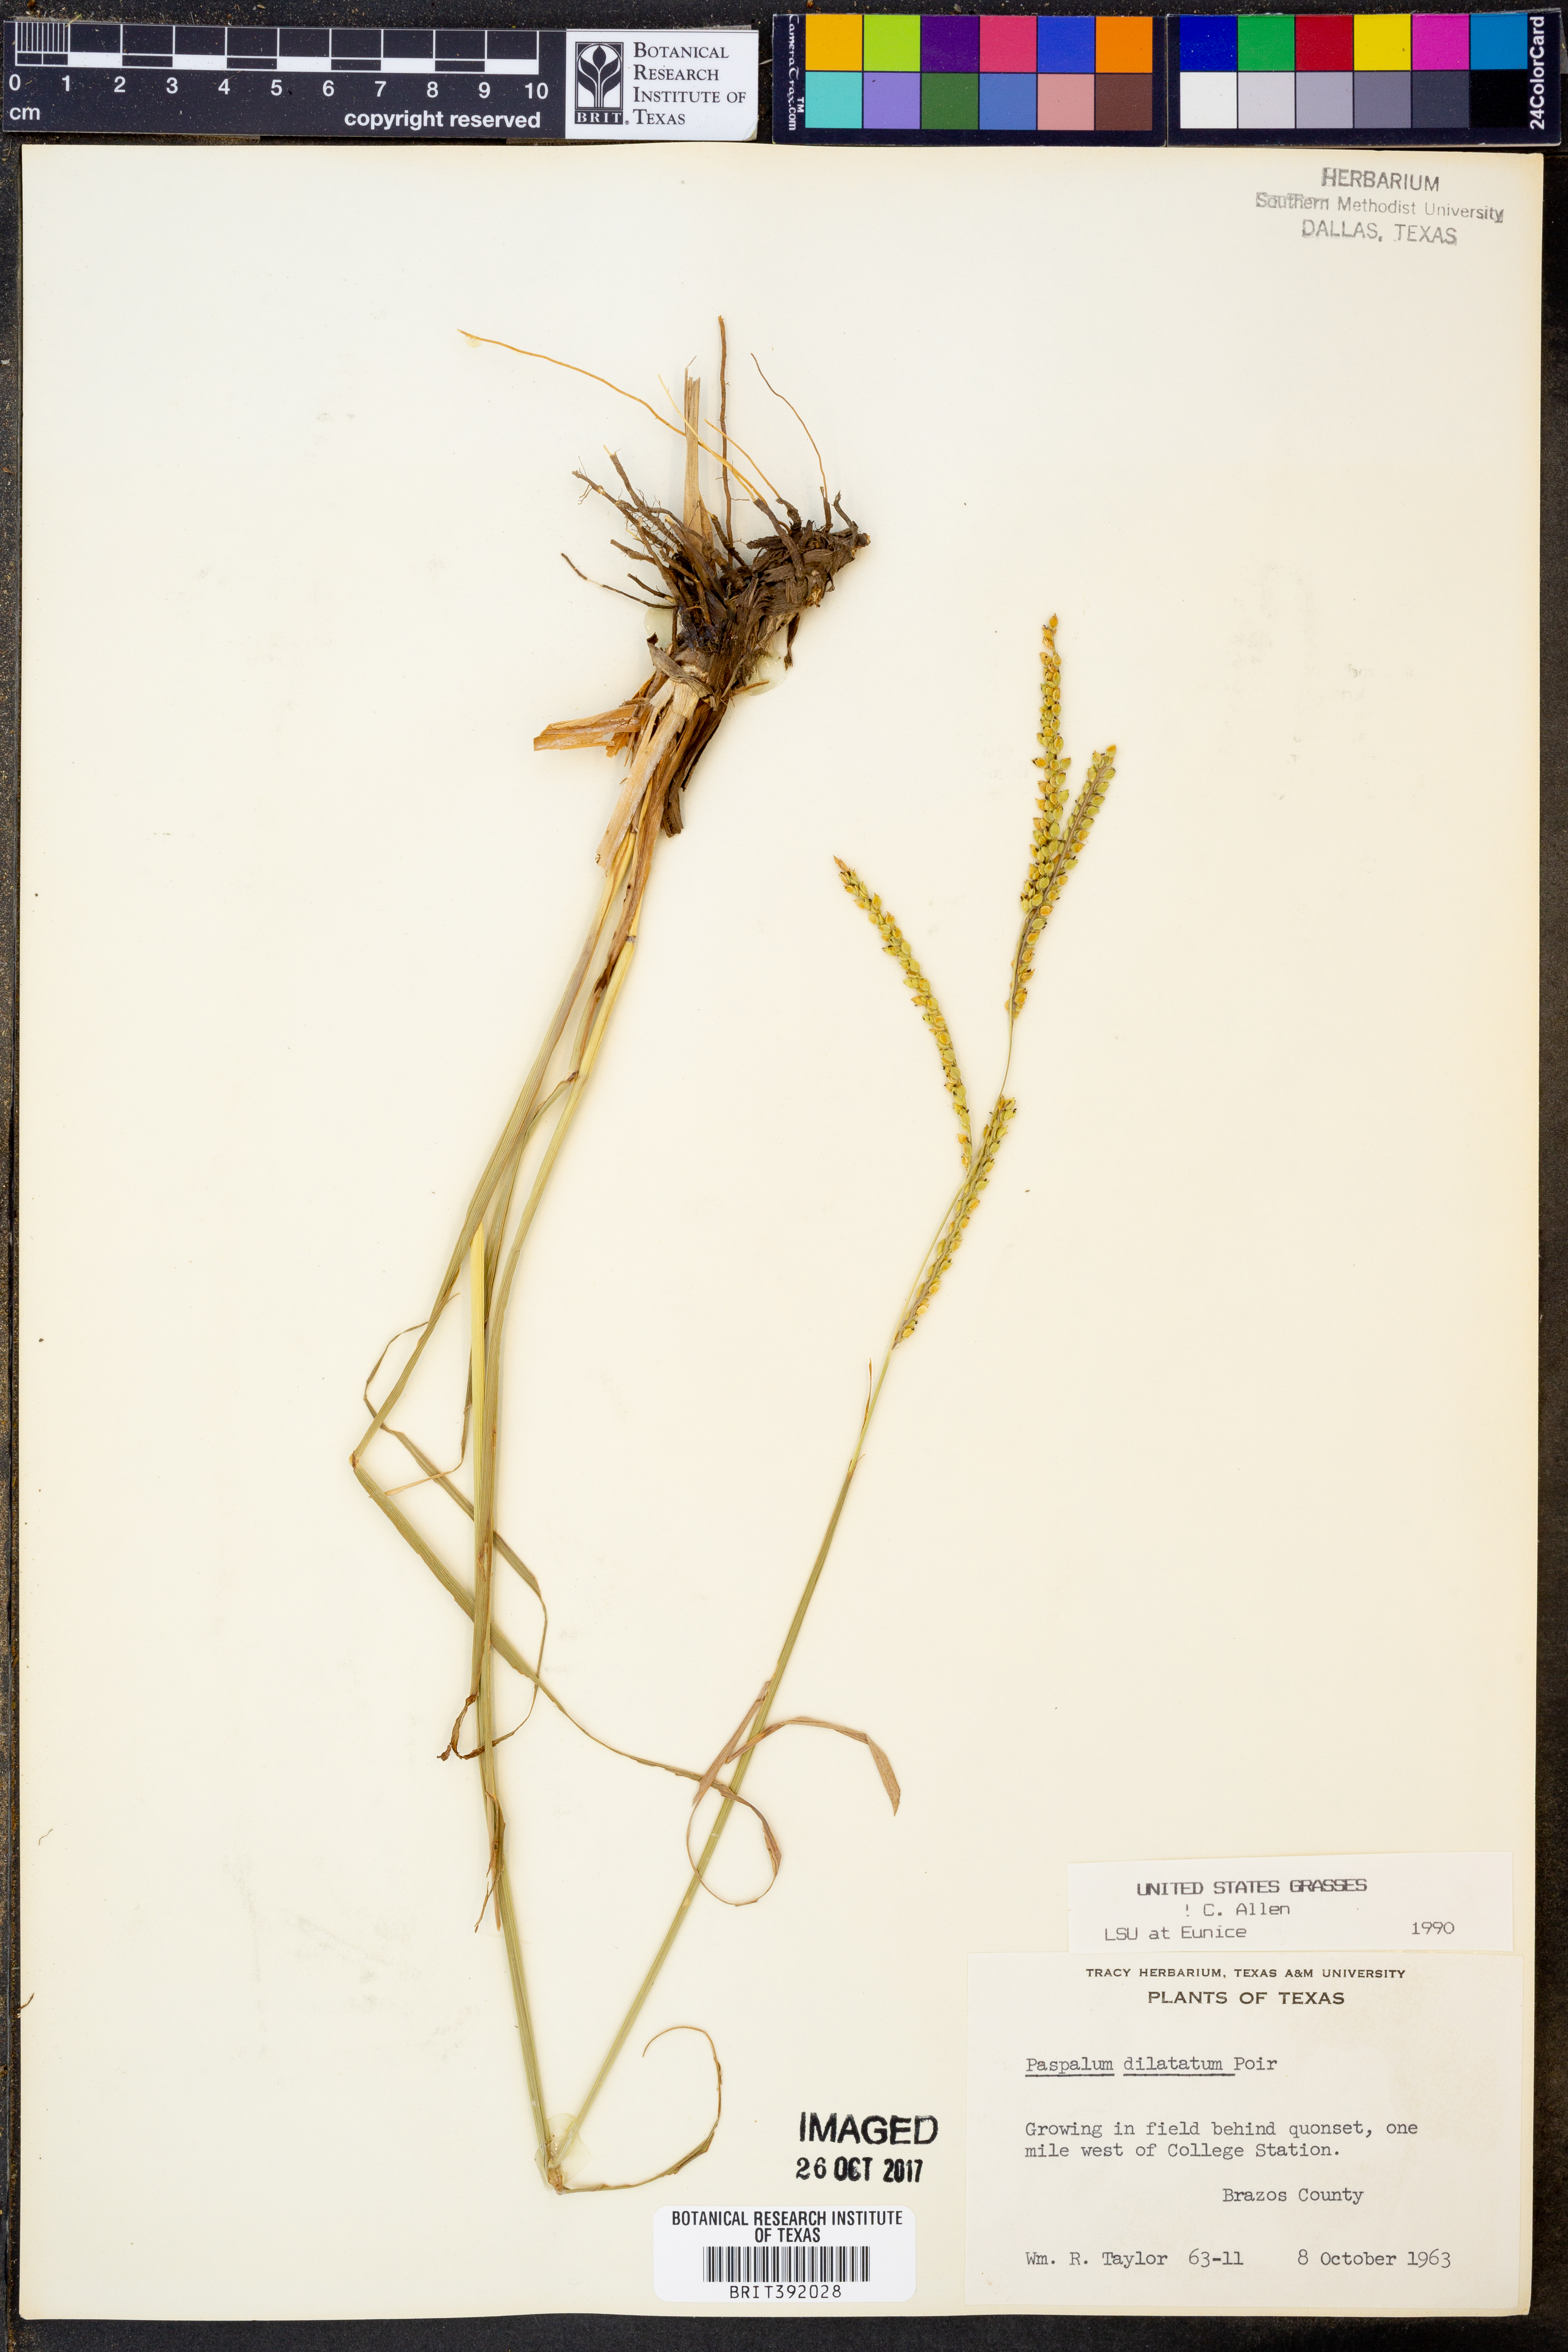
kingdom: Plantae
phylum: Tracheophyta
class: Liliopsida
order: Poales
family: Poaceae
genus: Paspalum
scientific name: Paspalum dilatatum
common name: Dallisgrass
